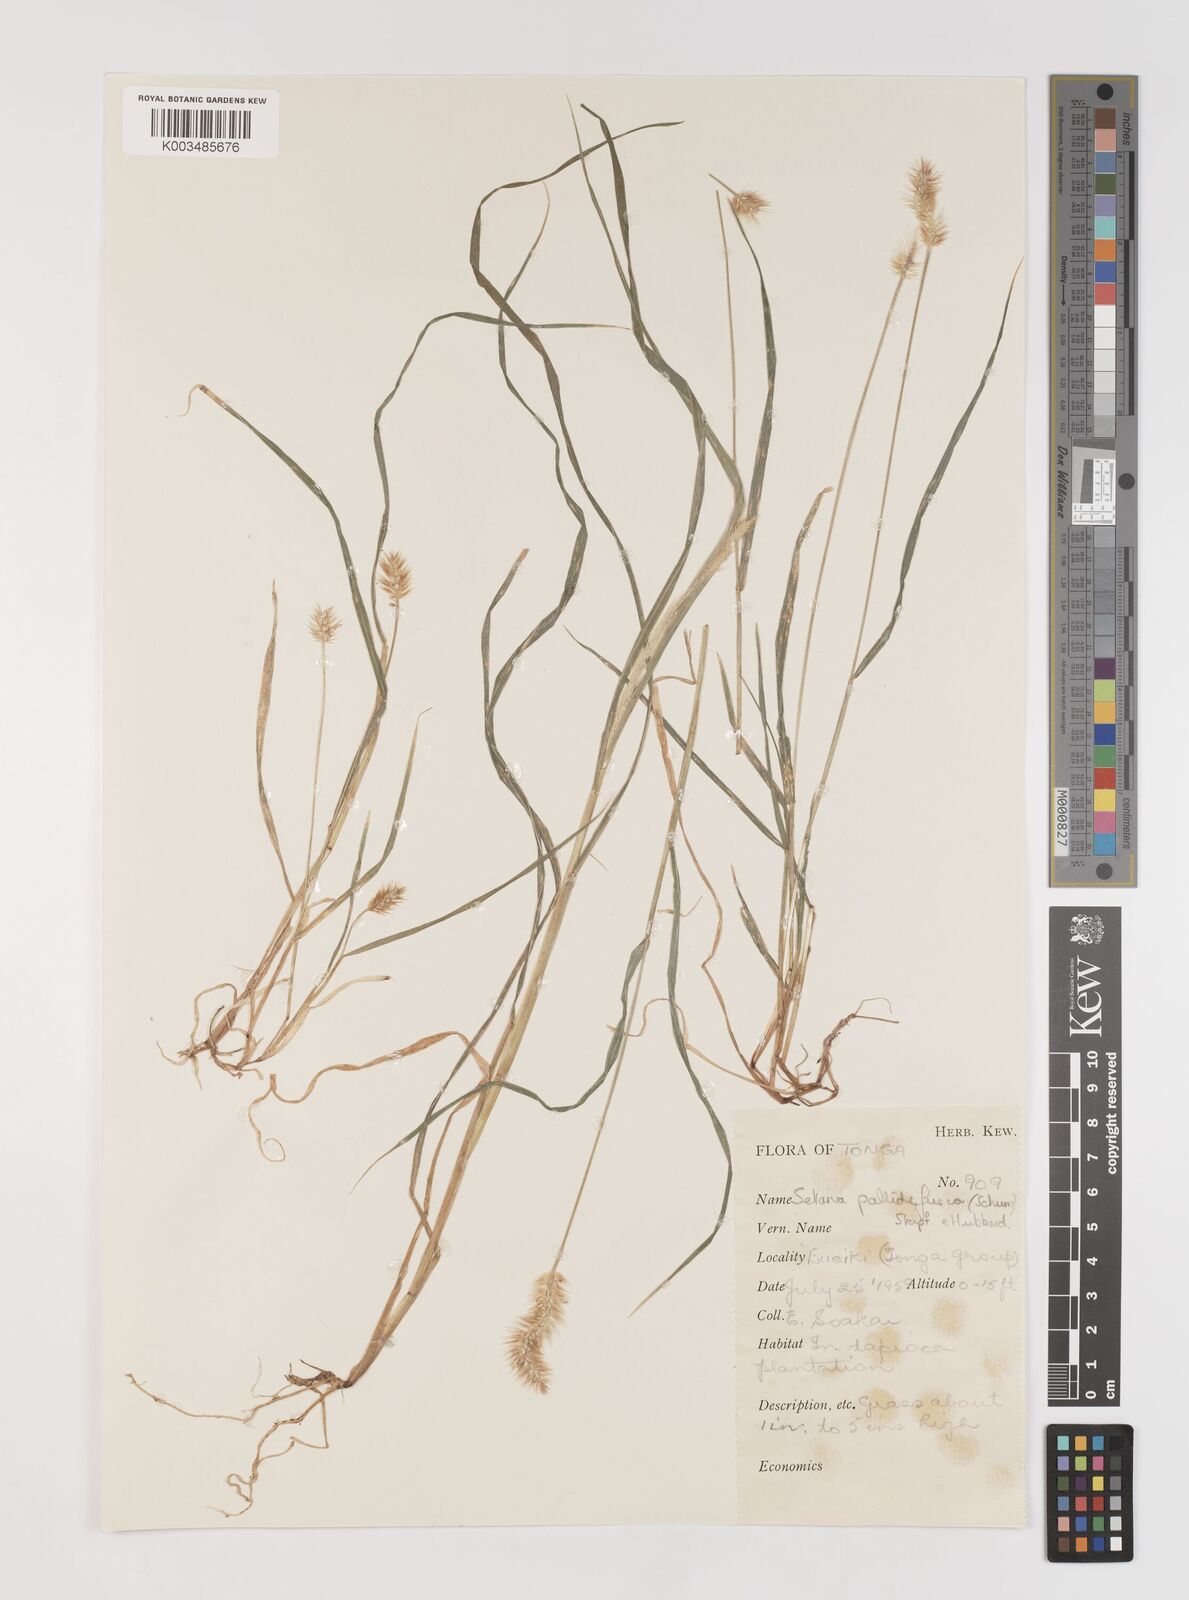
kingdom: Plantae
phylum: Tracheophyta
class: Liliopsida
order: Poales
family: Poaceae
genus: Setaria
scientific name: Setaria pumila
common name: Yellow bristle-grass
